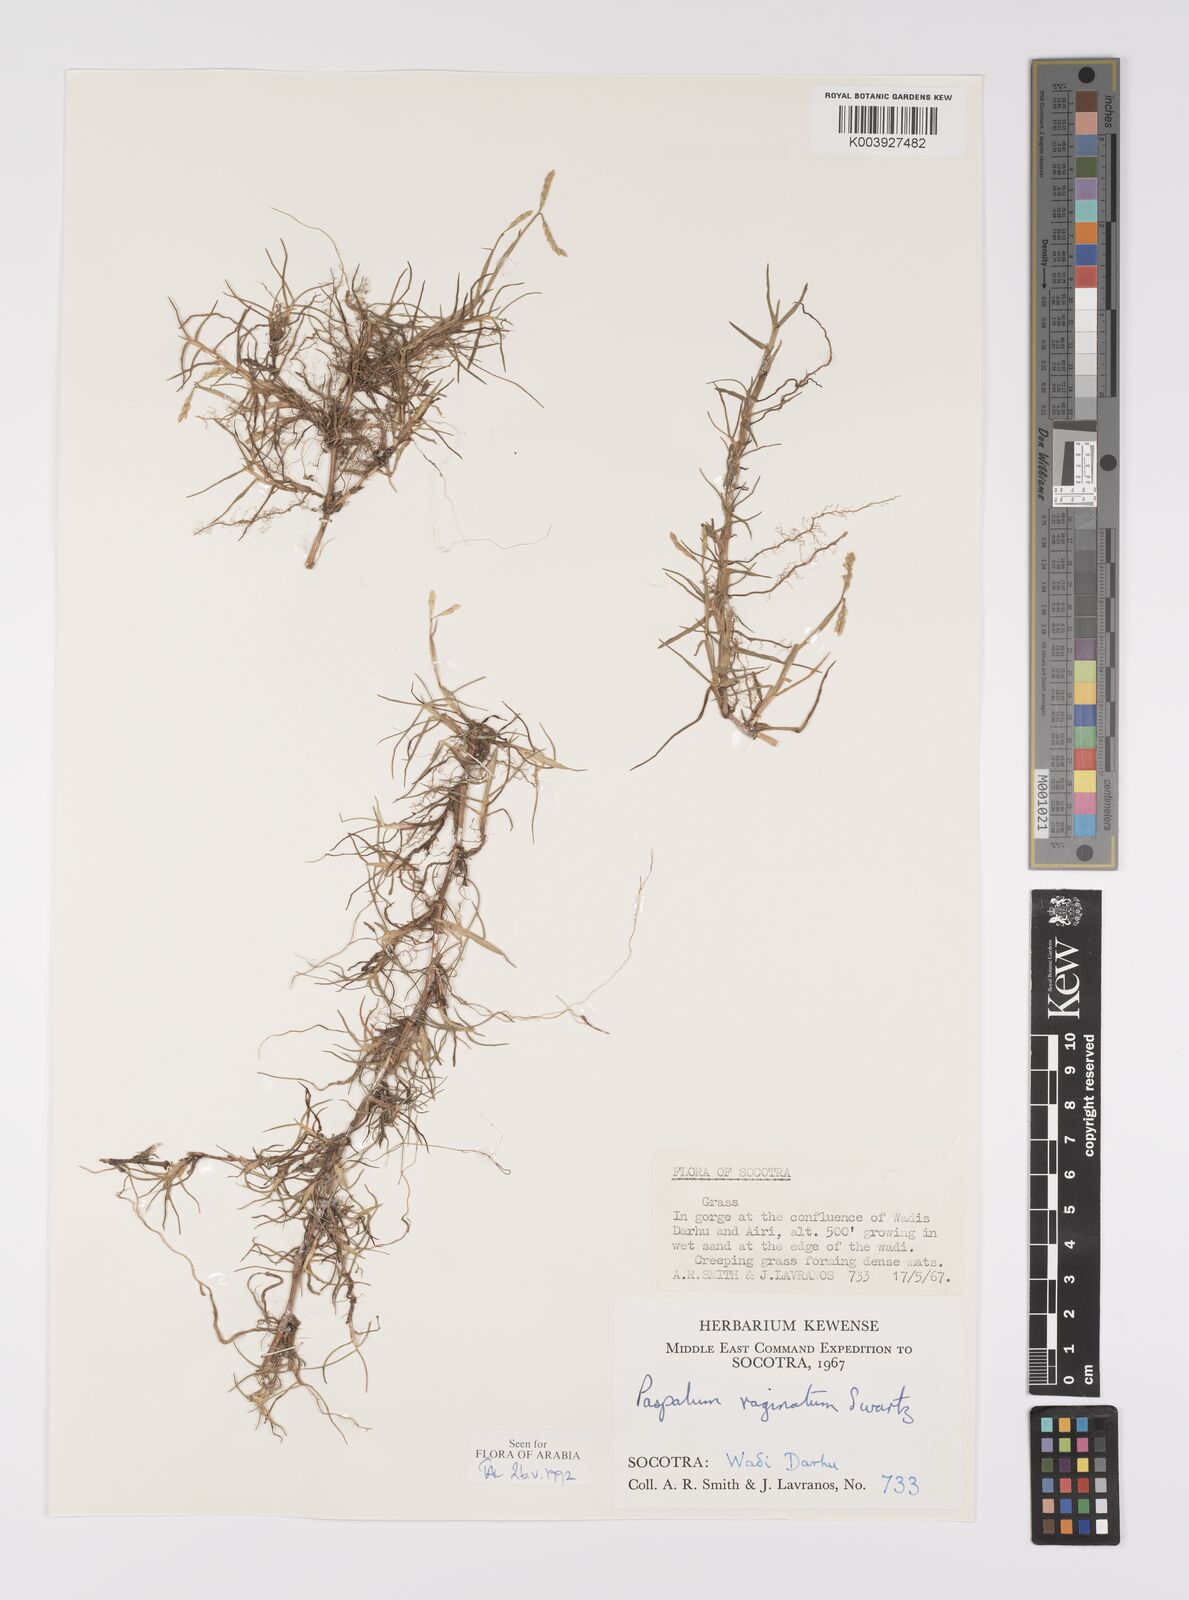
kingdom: Plantae
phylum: Tracheophyta
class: Liliopsida
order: Poales
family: Poaceae
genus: Paspalum
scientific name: Paspalum vaginatum
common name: Seashore paspalum
